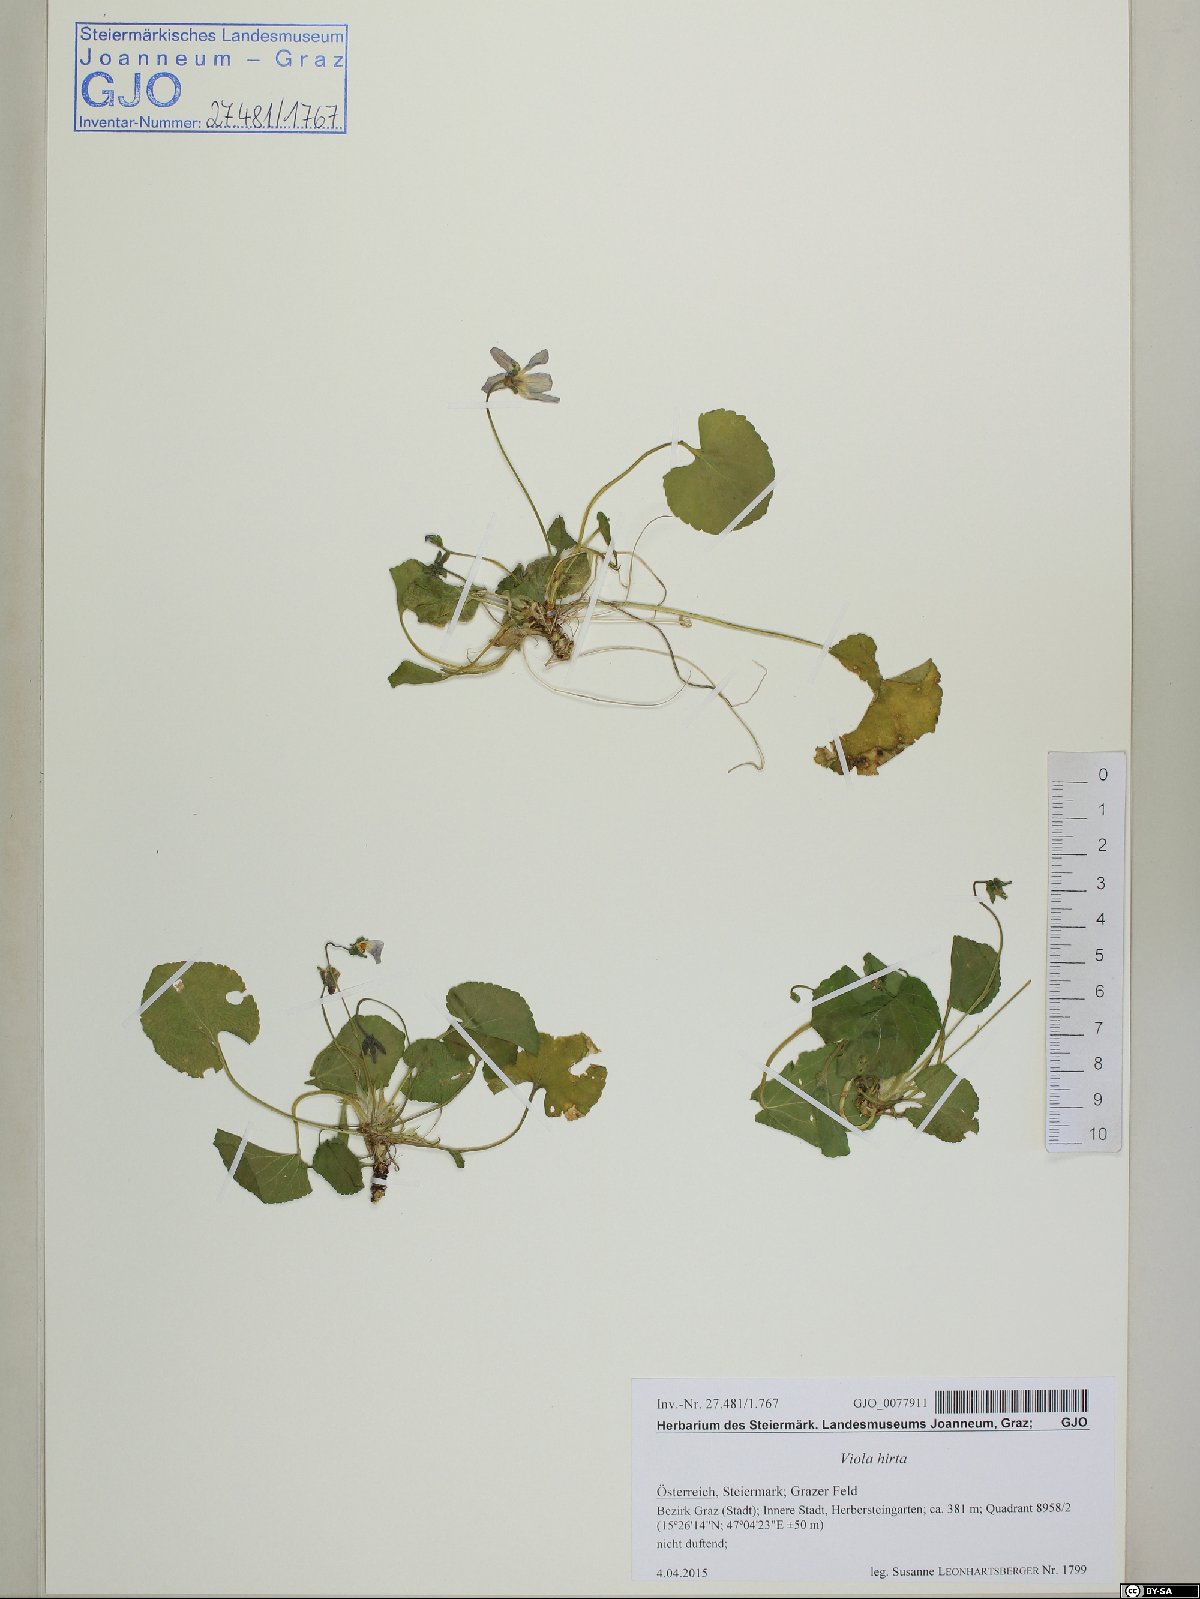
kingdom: Plantae
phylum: Tracheophyta
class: Magnoliopsida
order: Malpighiales
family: Violaceae
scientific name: Violaceae
